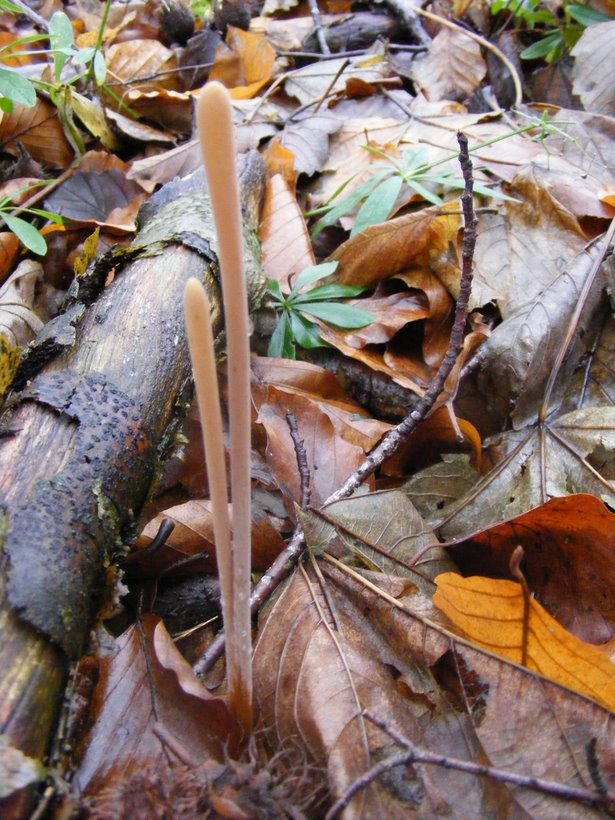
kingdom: Fungi
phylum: Basidiomycota
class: Agaricomycetes
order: Agaricales
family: Typhulaceae
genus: Typhula
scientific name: Typhula fistulosa
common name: pibet rørkølle
